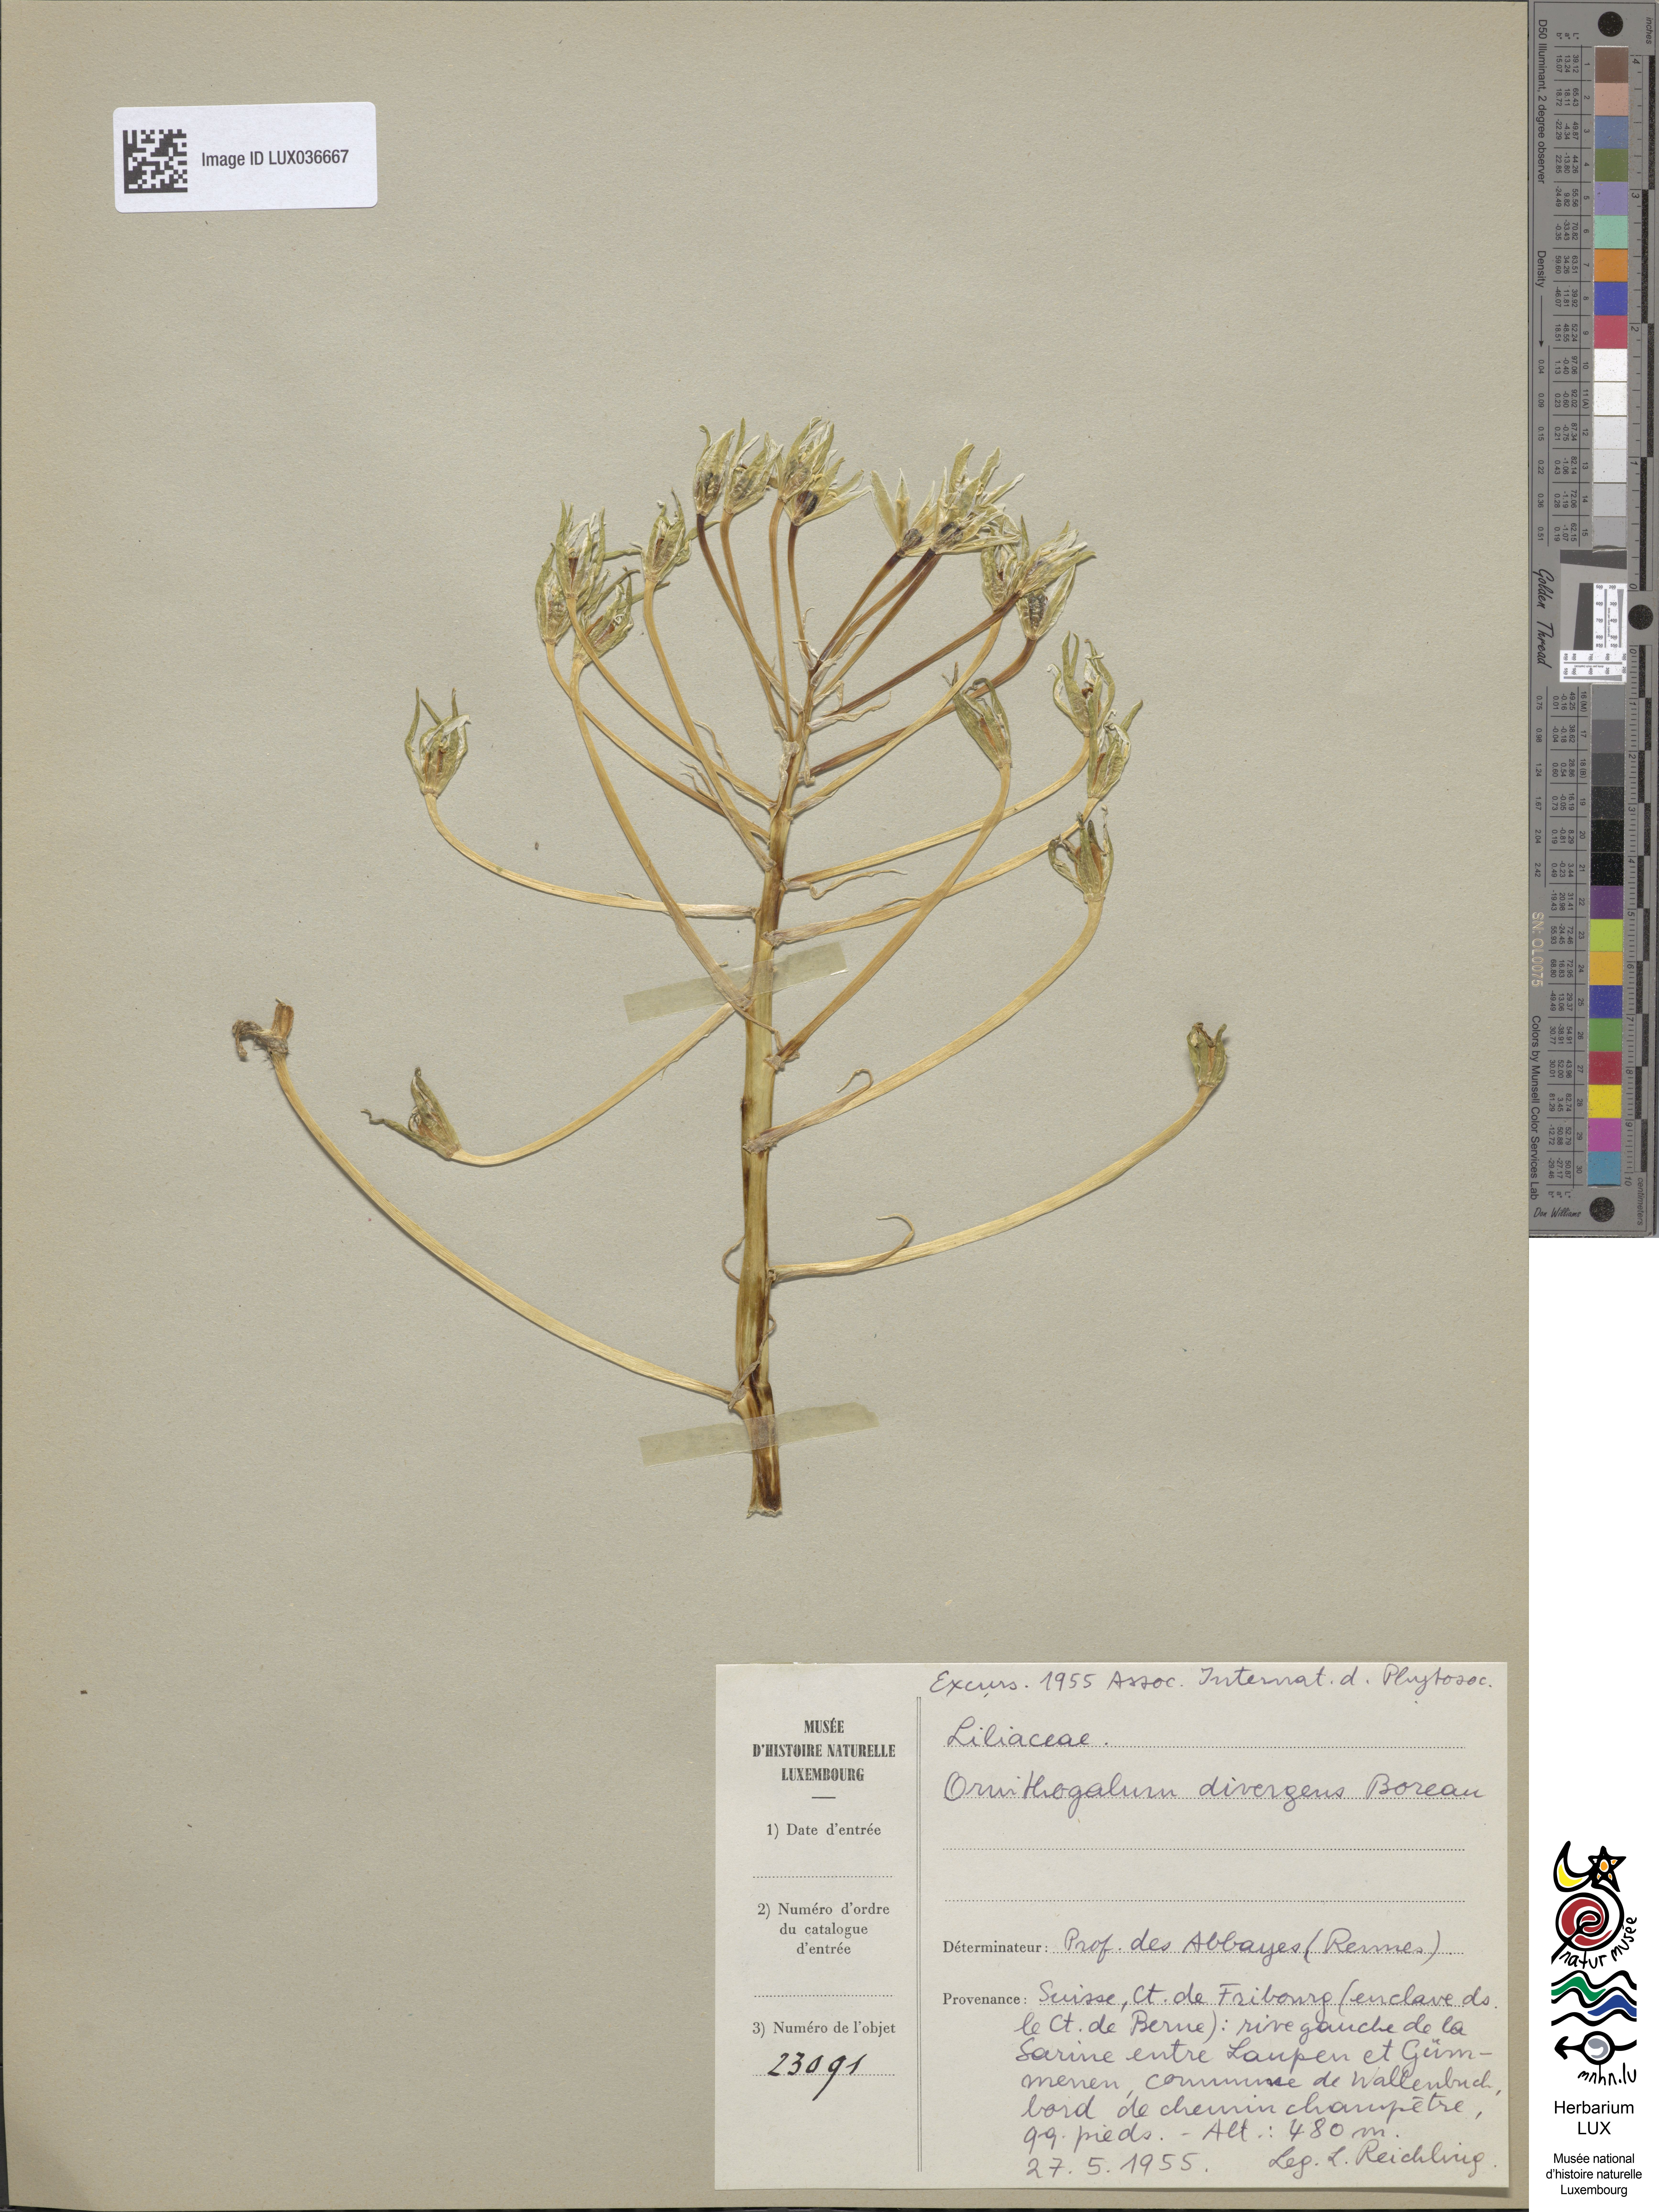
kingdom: Plantae
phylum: Tracheophyta
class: Liliopsida
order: Asparagales
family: Asparagaceae
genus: Ornithogalum
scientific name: Ornithogalum divergens
